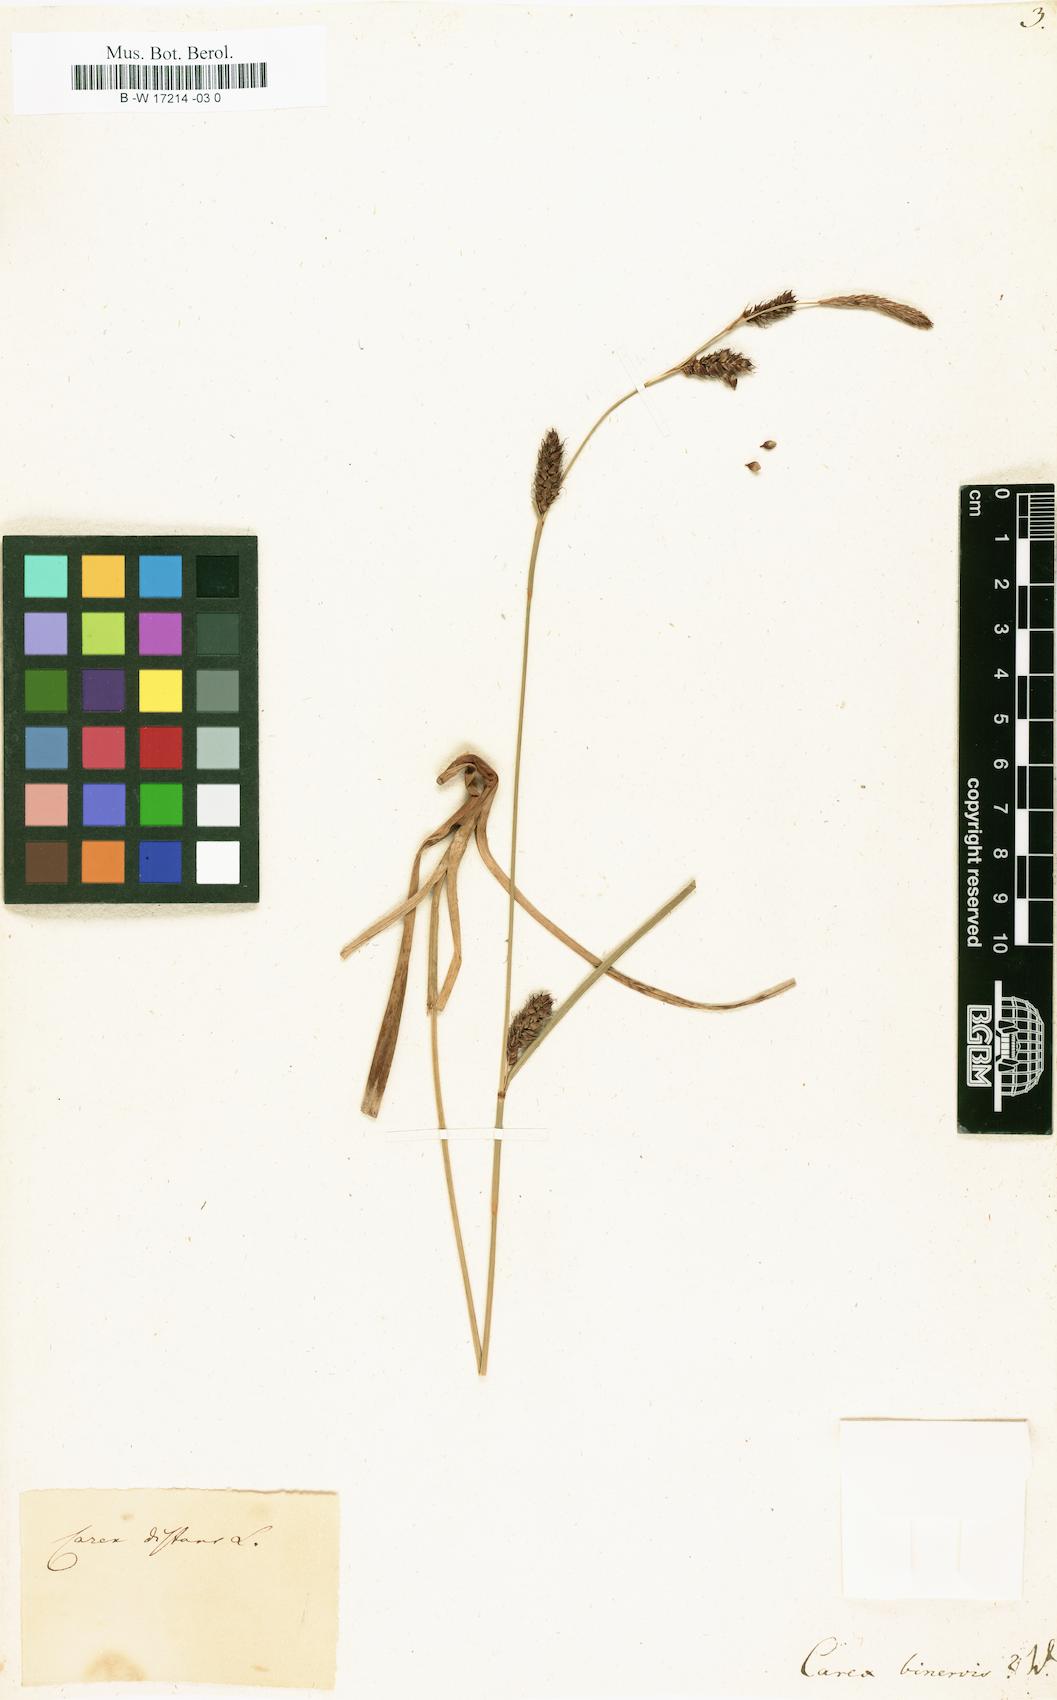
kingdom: Plantae
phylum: Tracheophyta
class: Liliopsida
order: Poales
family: Cyperaceae
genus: Carex
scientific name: Carex binervis
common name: Green-ribbed sedge
